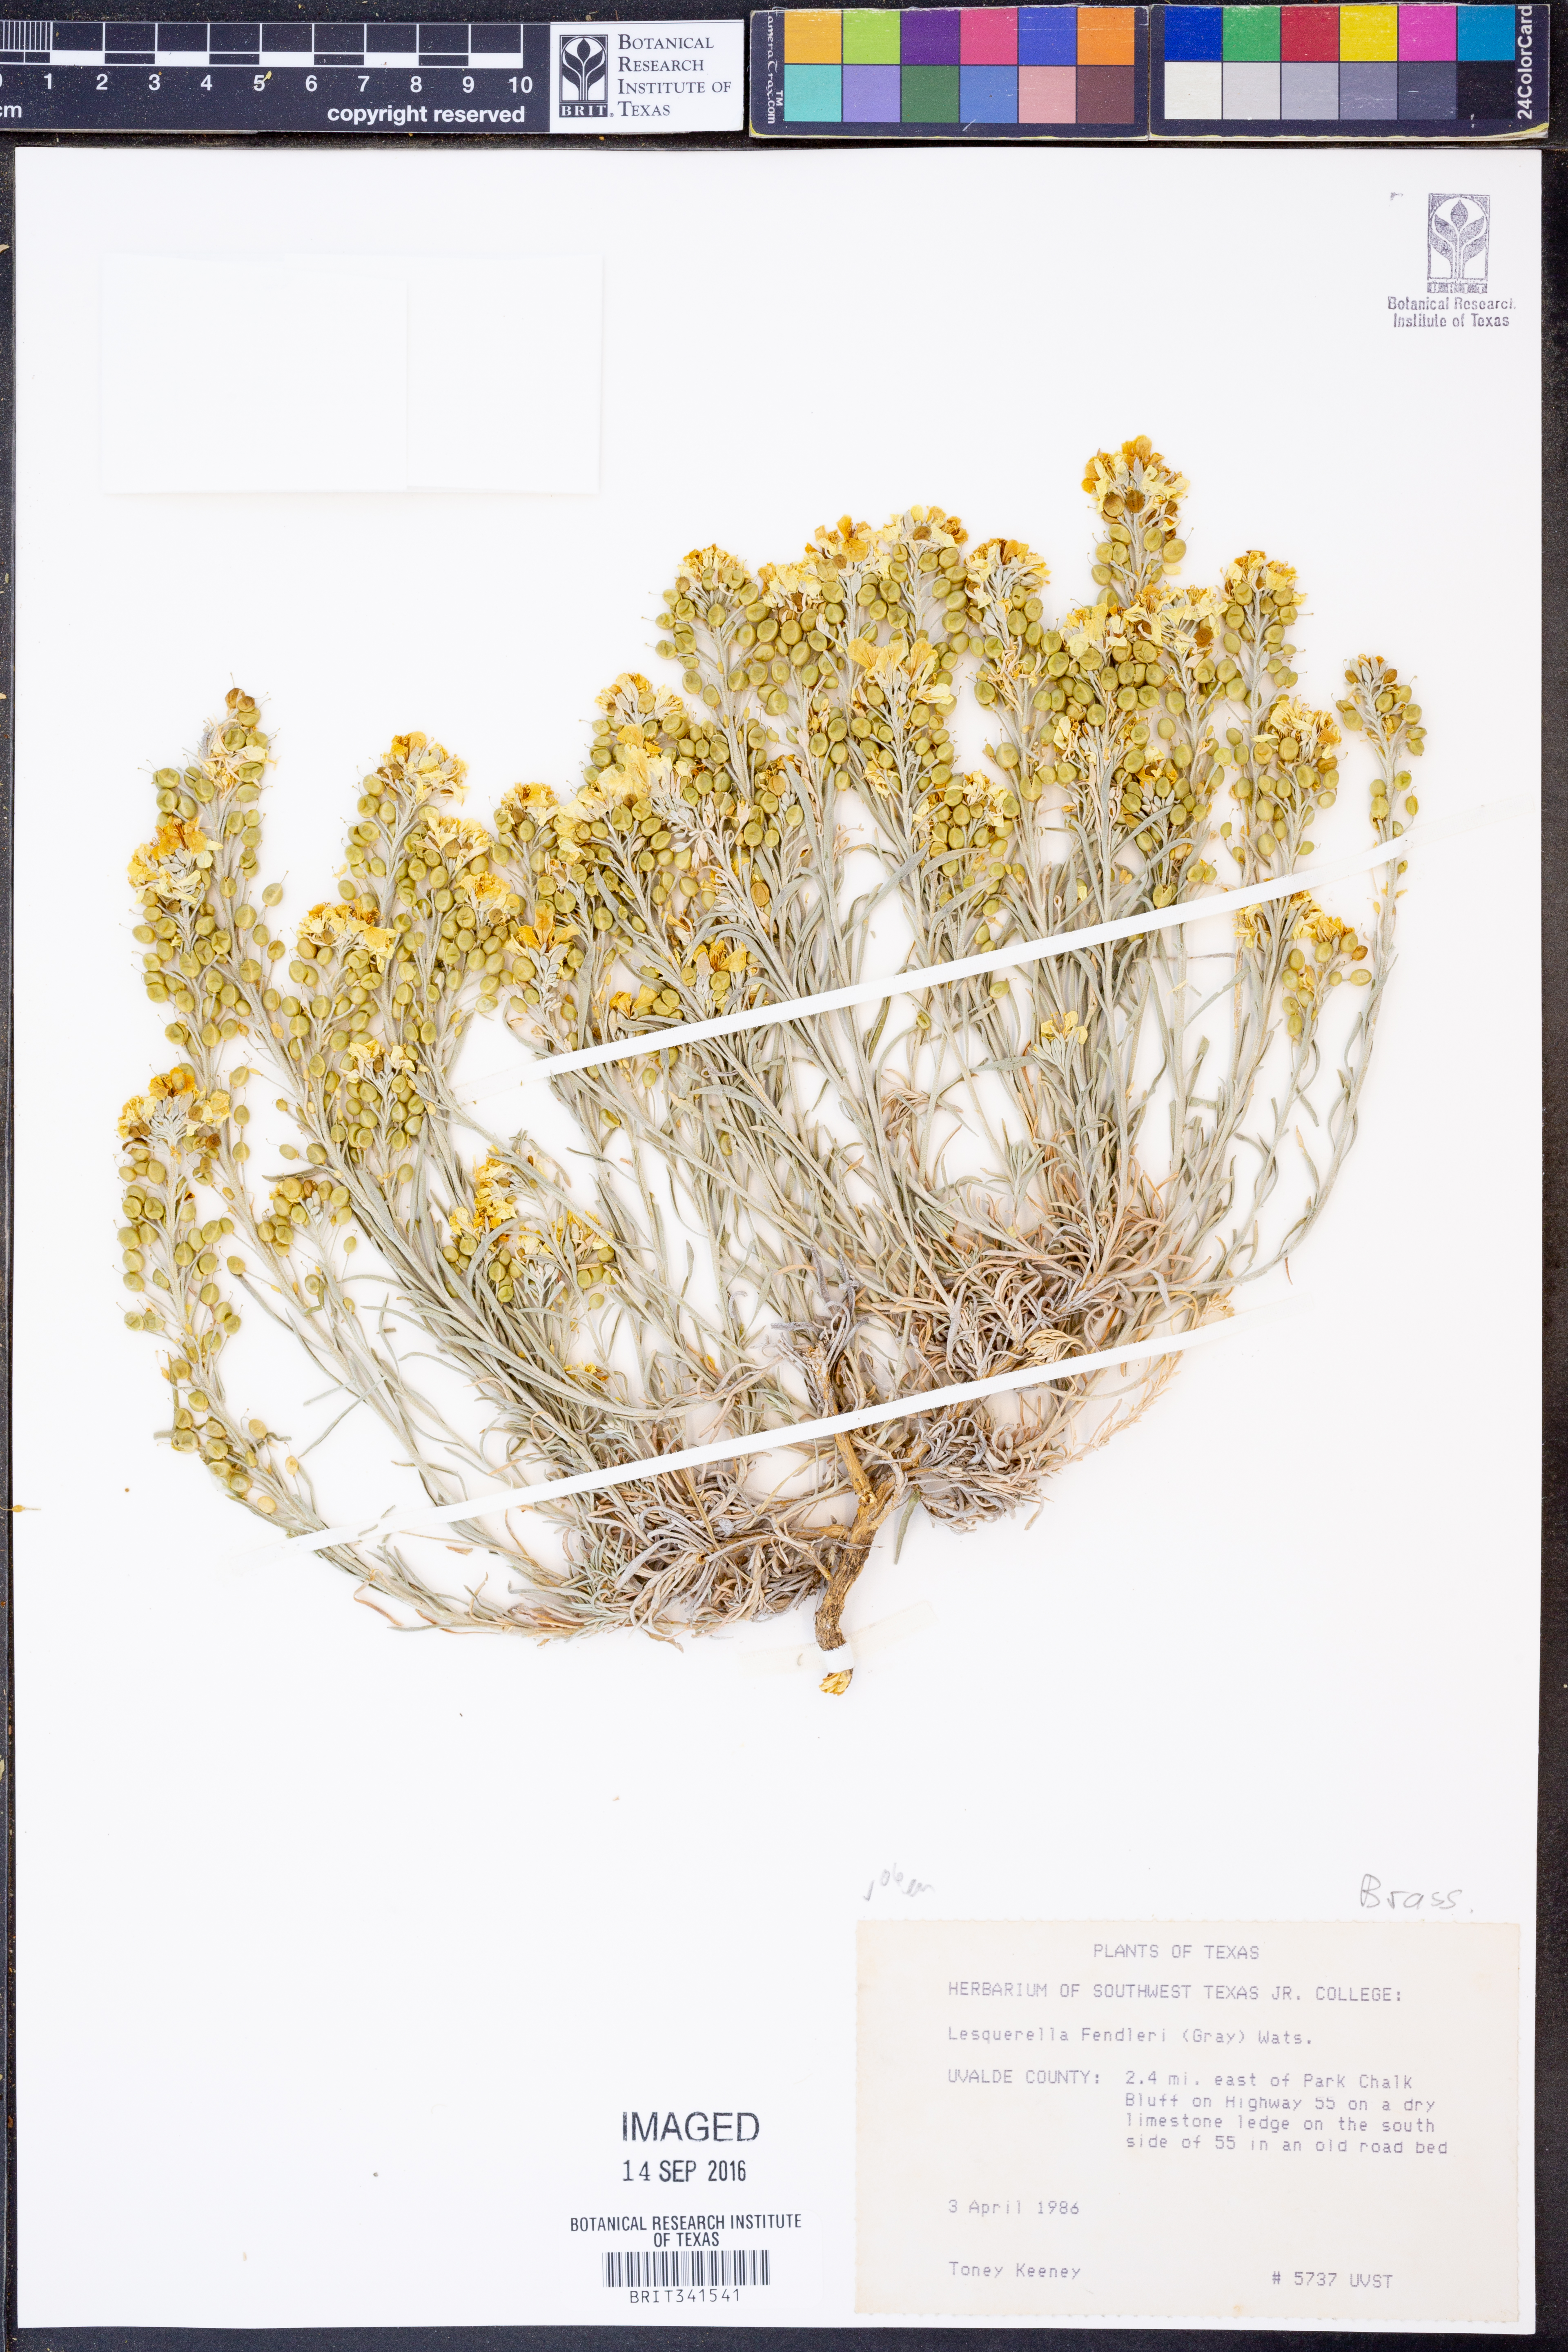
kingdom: Plantae
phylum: Tracheophyta
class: Magnoliopsida
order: Brassicales
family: Brassicaceae
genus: Physaria
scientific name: Physaria fendleri
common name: Fendler's bladderpod
